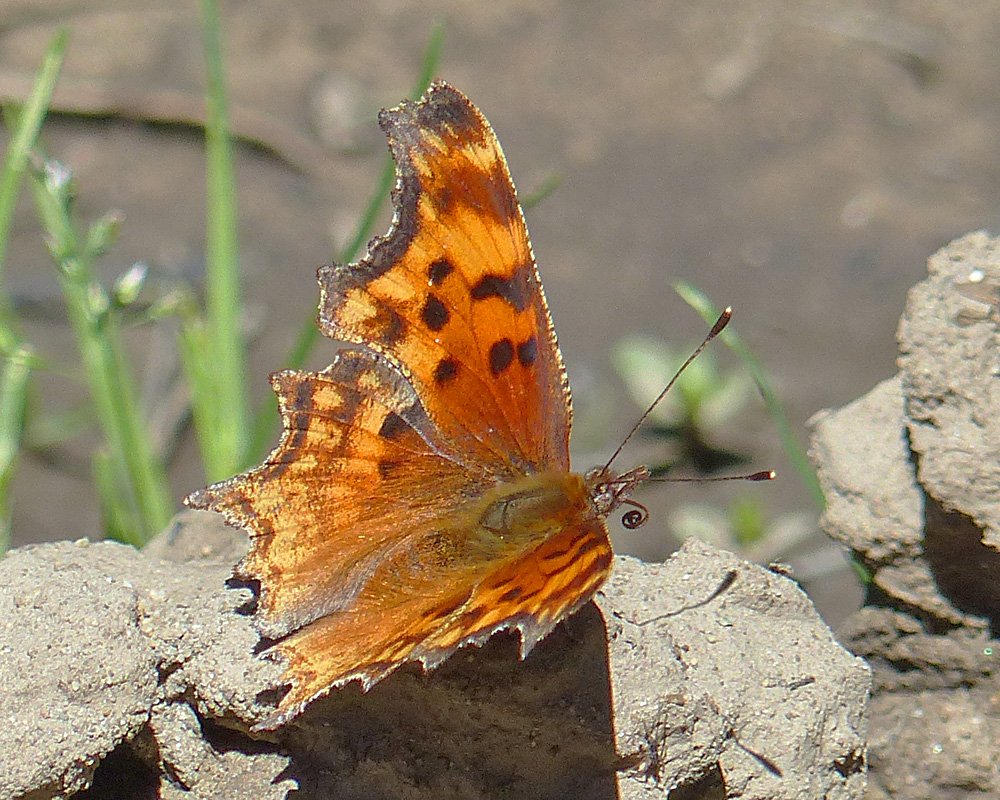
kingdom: Animalia
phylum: Arthropoda
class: Insecta
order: Lepidoptera
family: Nymphalidae
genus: Polygonia
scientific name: Polygonia gracilis
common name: Hoary Comma
